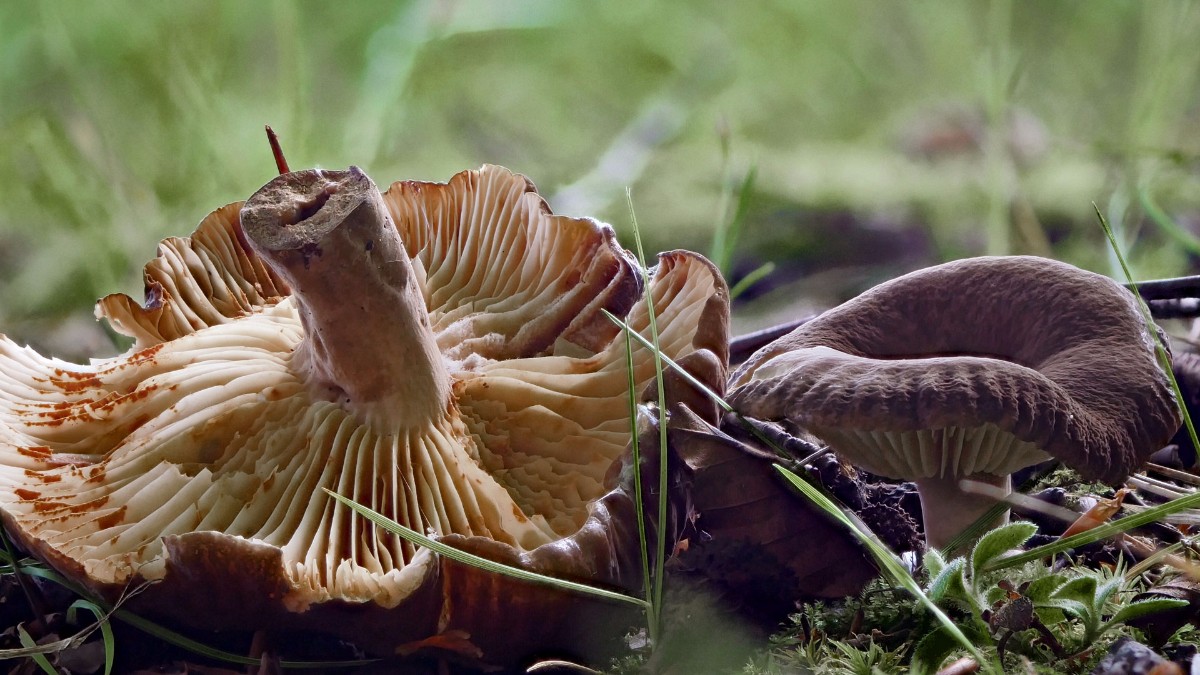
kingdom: Fungi
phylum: Basidiomycota
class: Agaricomycetes
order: Russulales
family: Russulaceae
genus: Lactarius
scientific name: Lactarius romagnesii
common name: fjernbladet mælkehat
